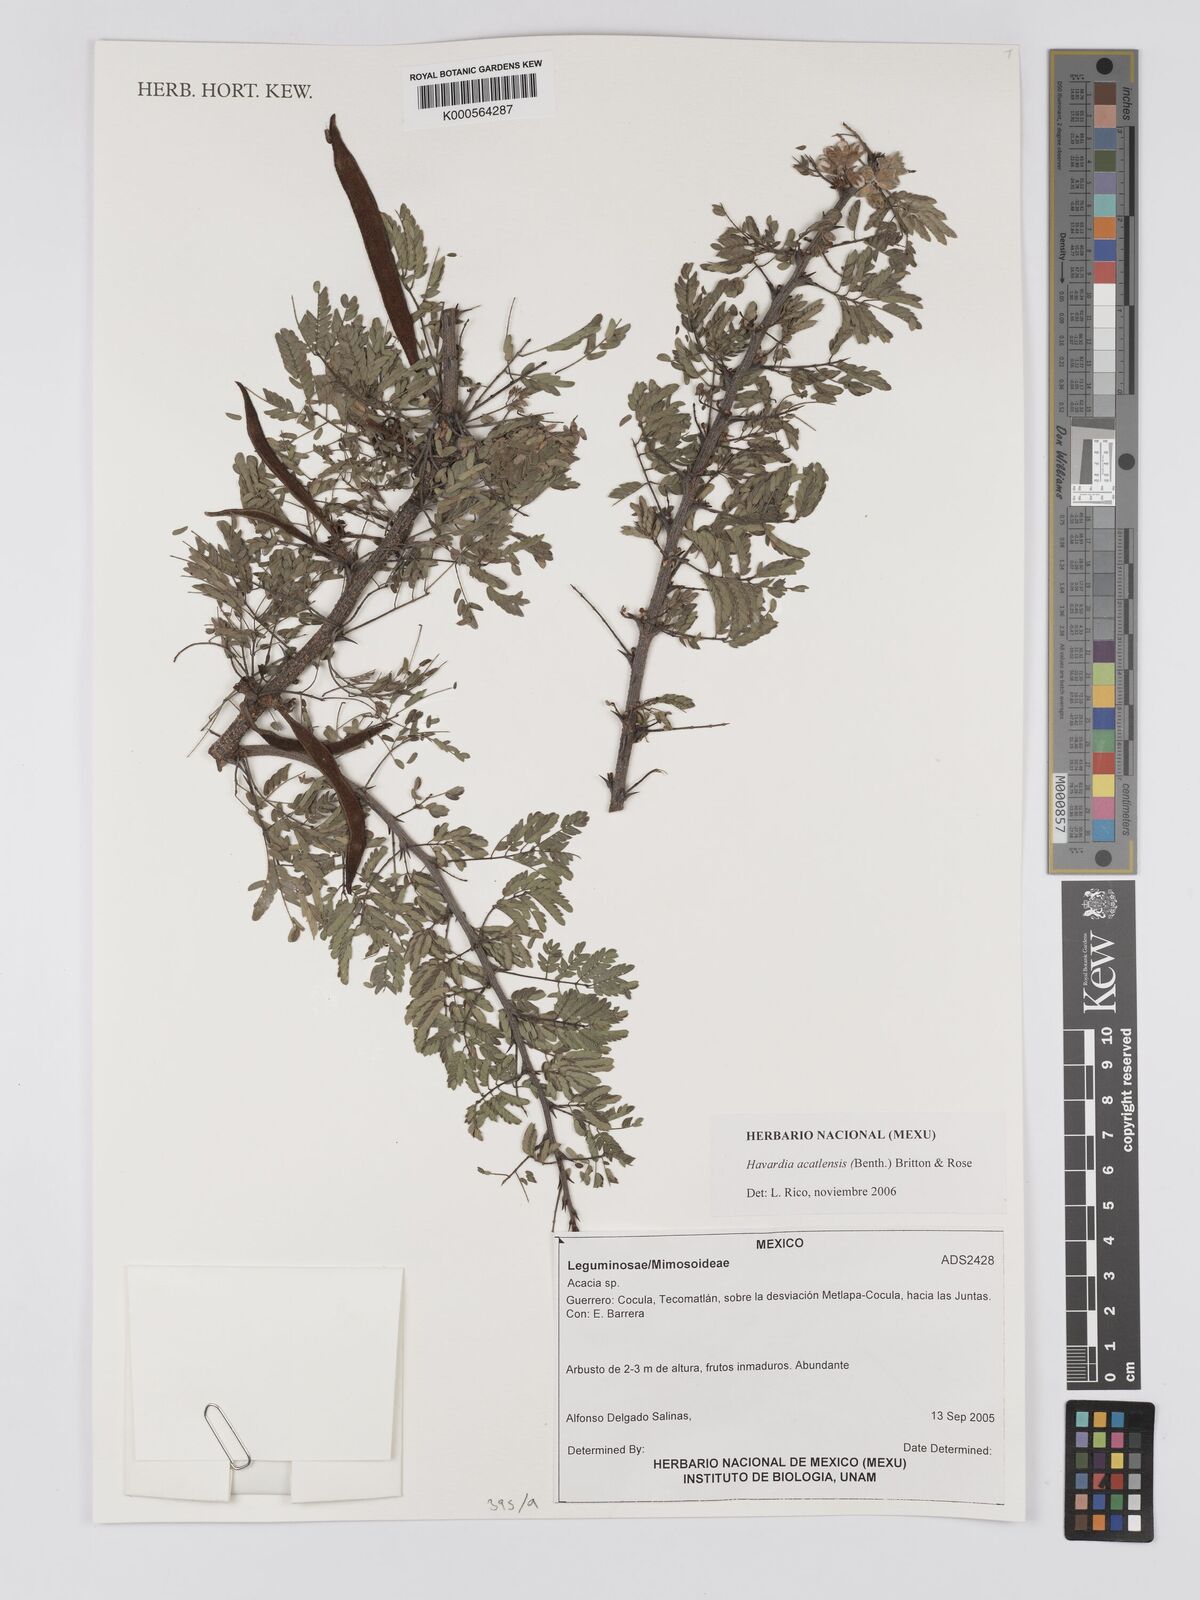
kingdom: Plantae
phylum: Tracheophyta
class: Magnoliopsida
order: Fabales
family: Fabaceae
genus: Havardia
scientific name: Havardia acatlensis
